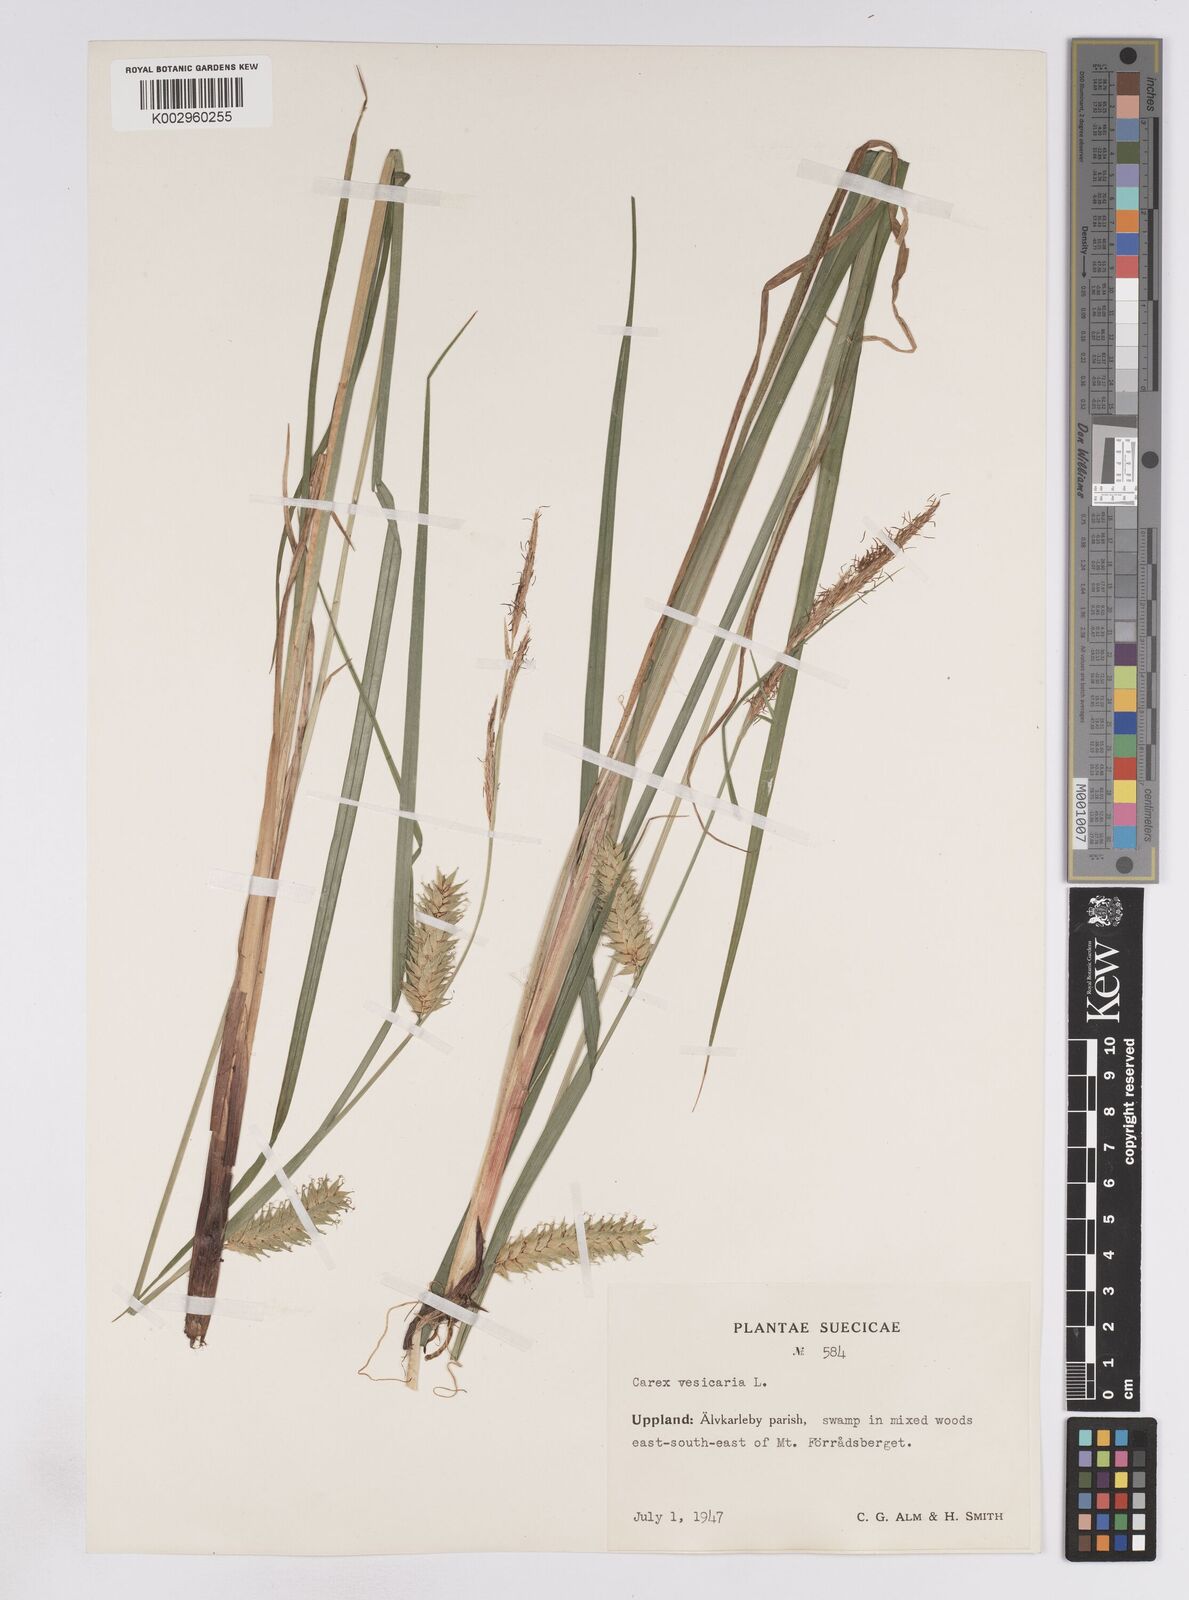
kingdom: Plantae
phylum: Tracheophyta
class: Liliopsida
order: Poales
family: Cyperaceae
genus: Carex
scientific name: Carex vesicaria
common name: Bladder-sedge
